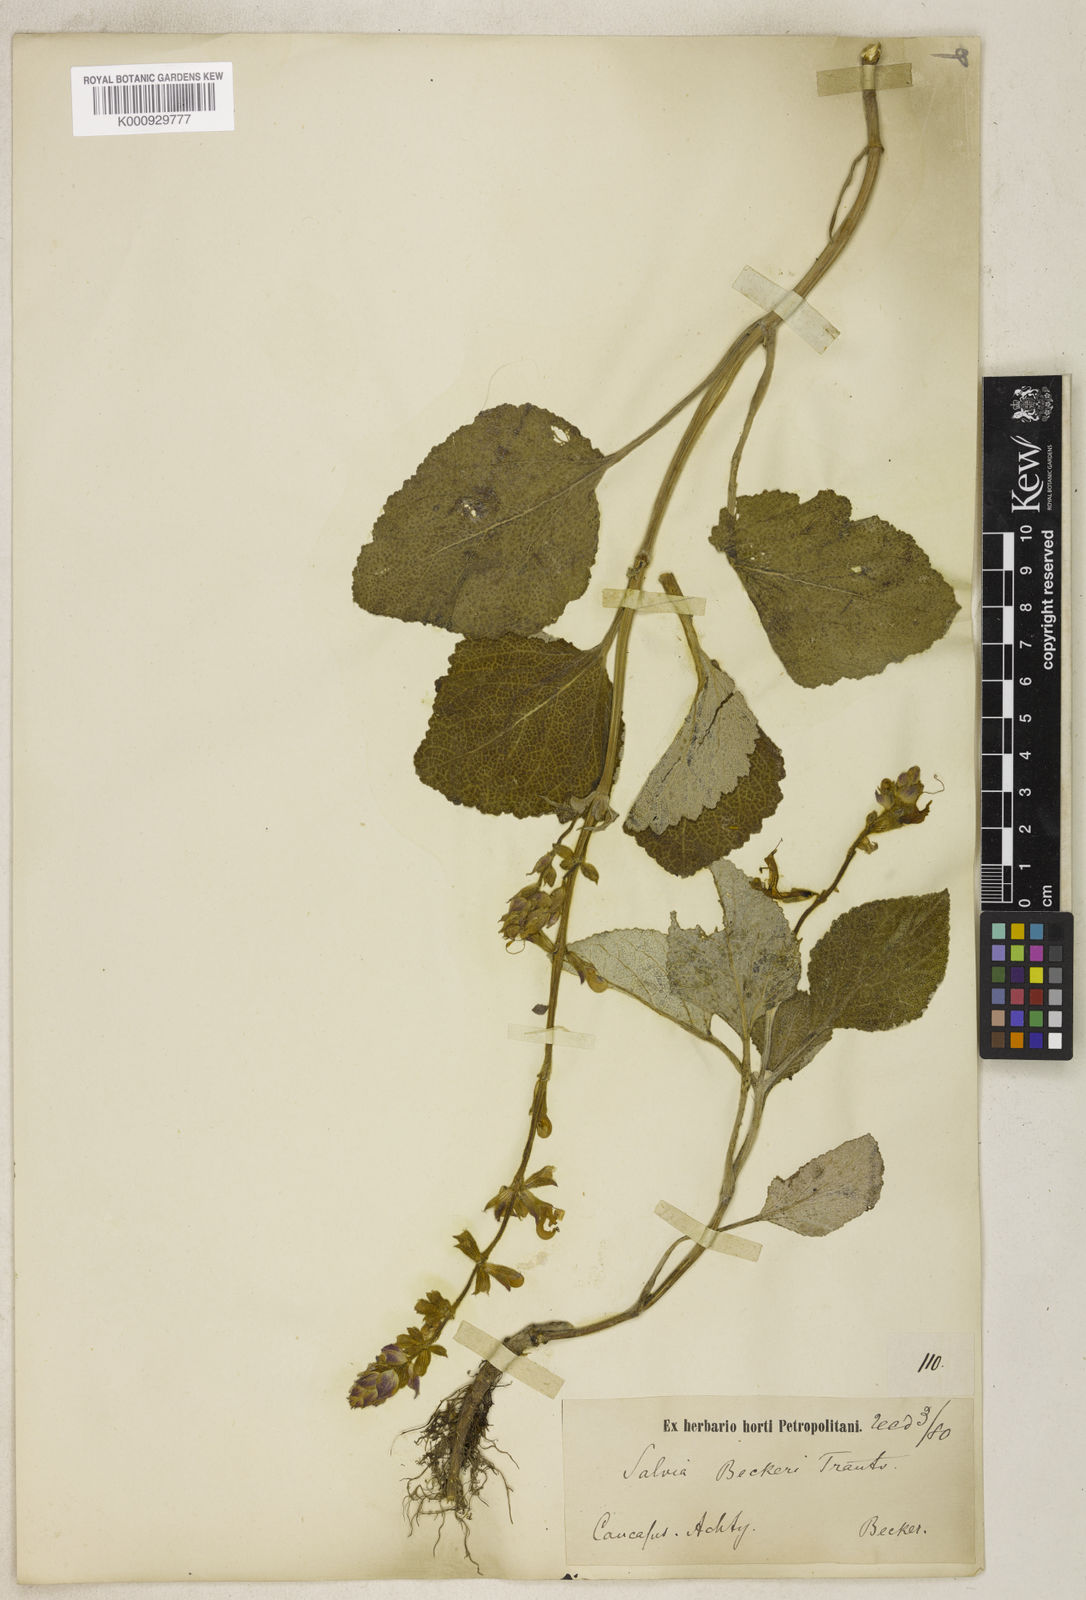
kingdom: Plantae
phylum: Tracheophyta
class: Magnoliopsida
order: Lamiales
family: Lamiaceae
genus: Salvia
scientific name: Salvia beckeri
